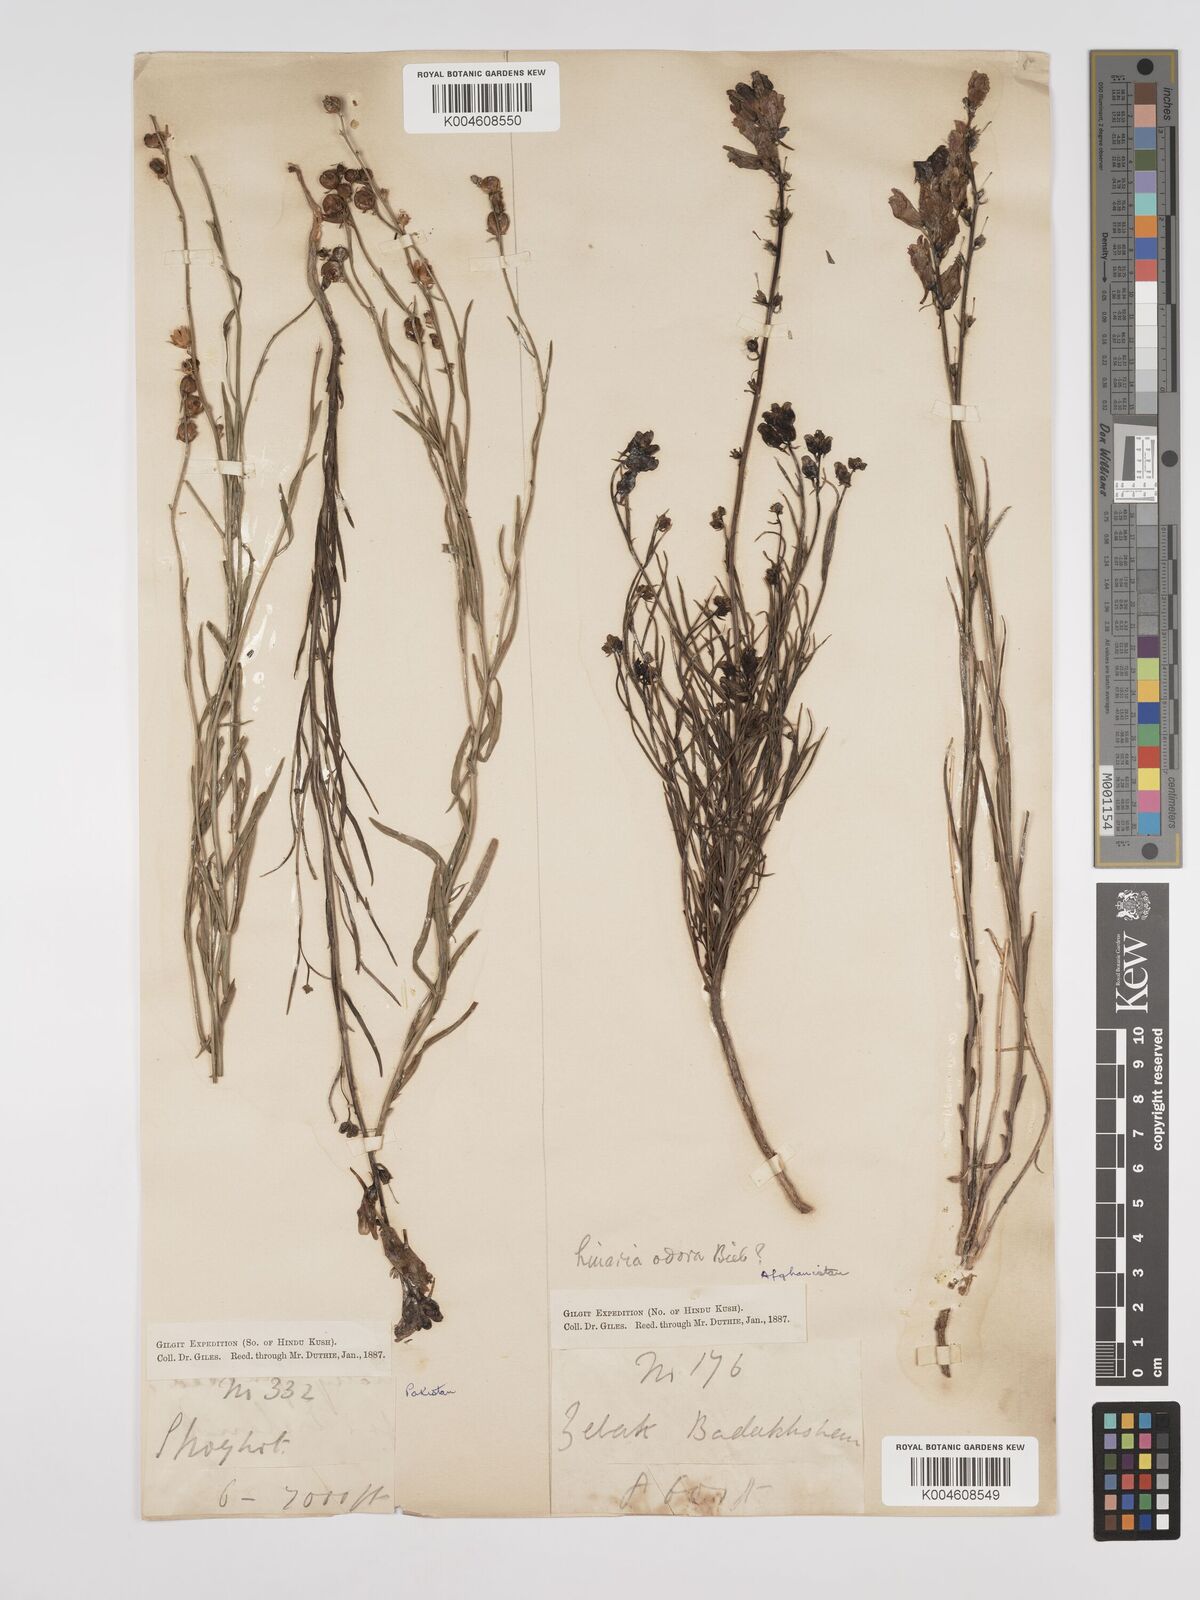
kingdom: Plantae
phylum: Tracheophyta
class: Magnoliopsida
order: Lamiales
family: Plantaginaceae
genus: Kickxia
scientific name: Kickxia
